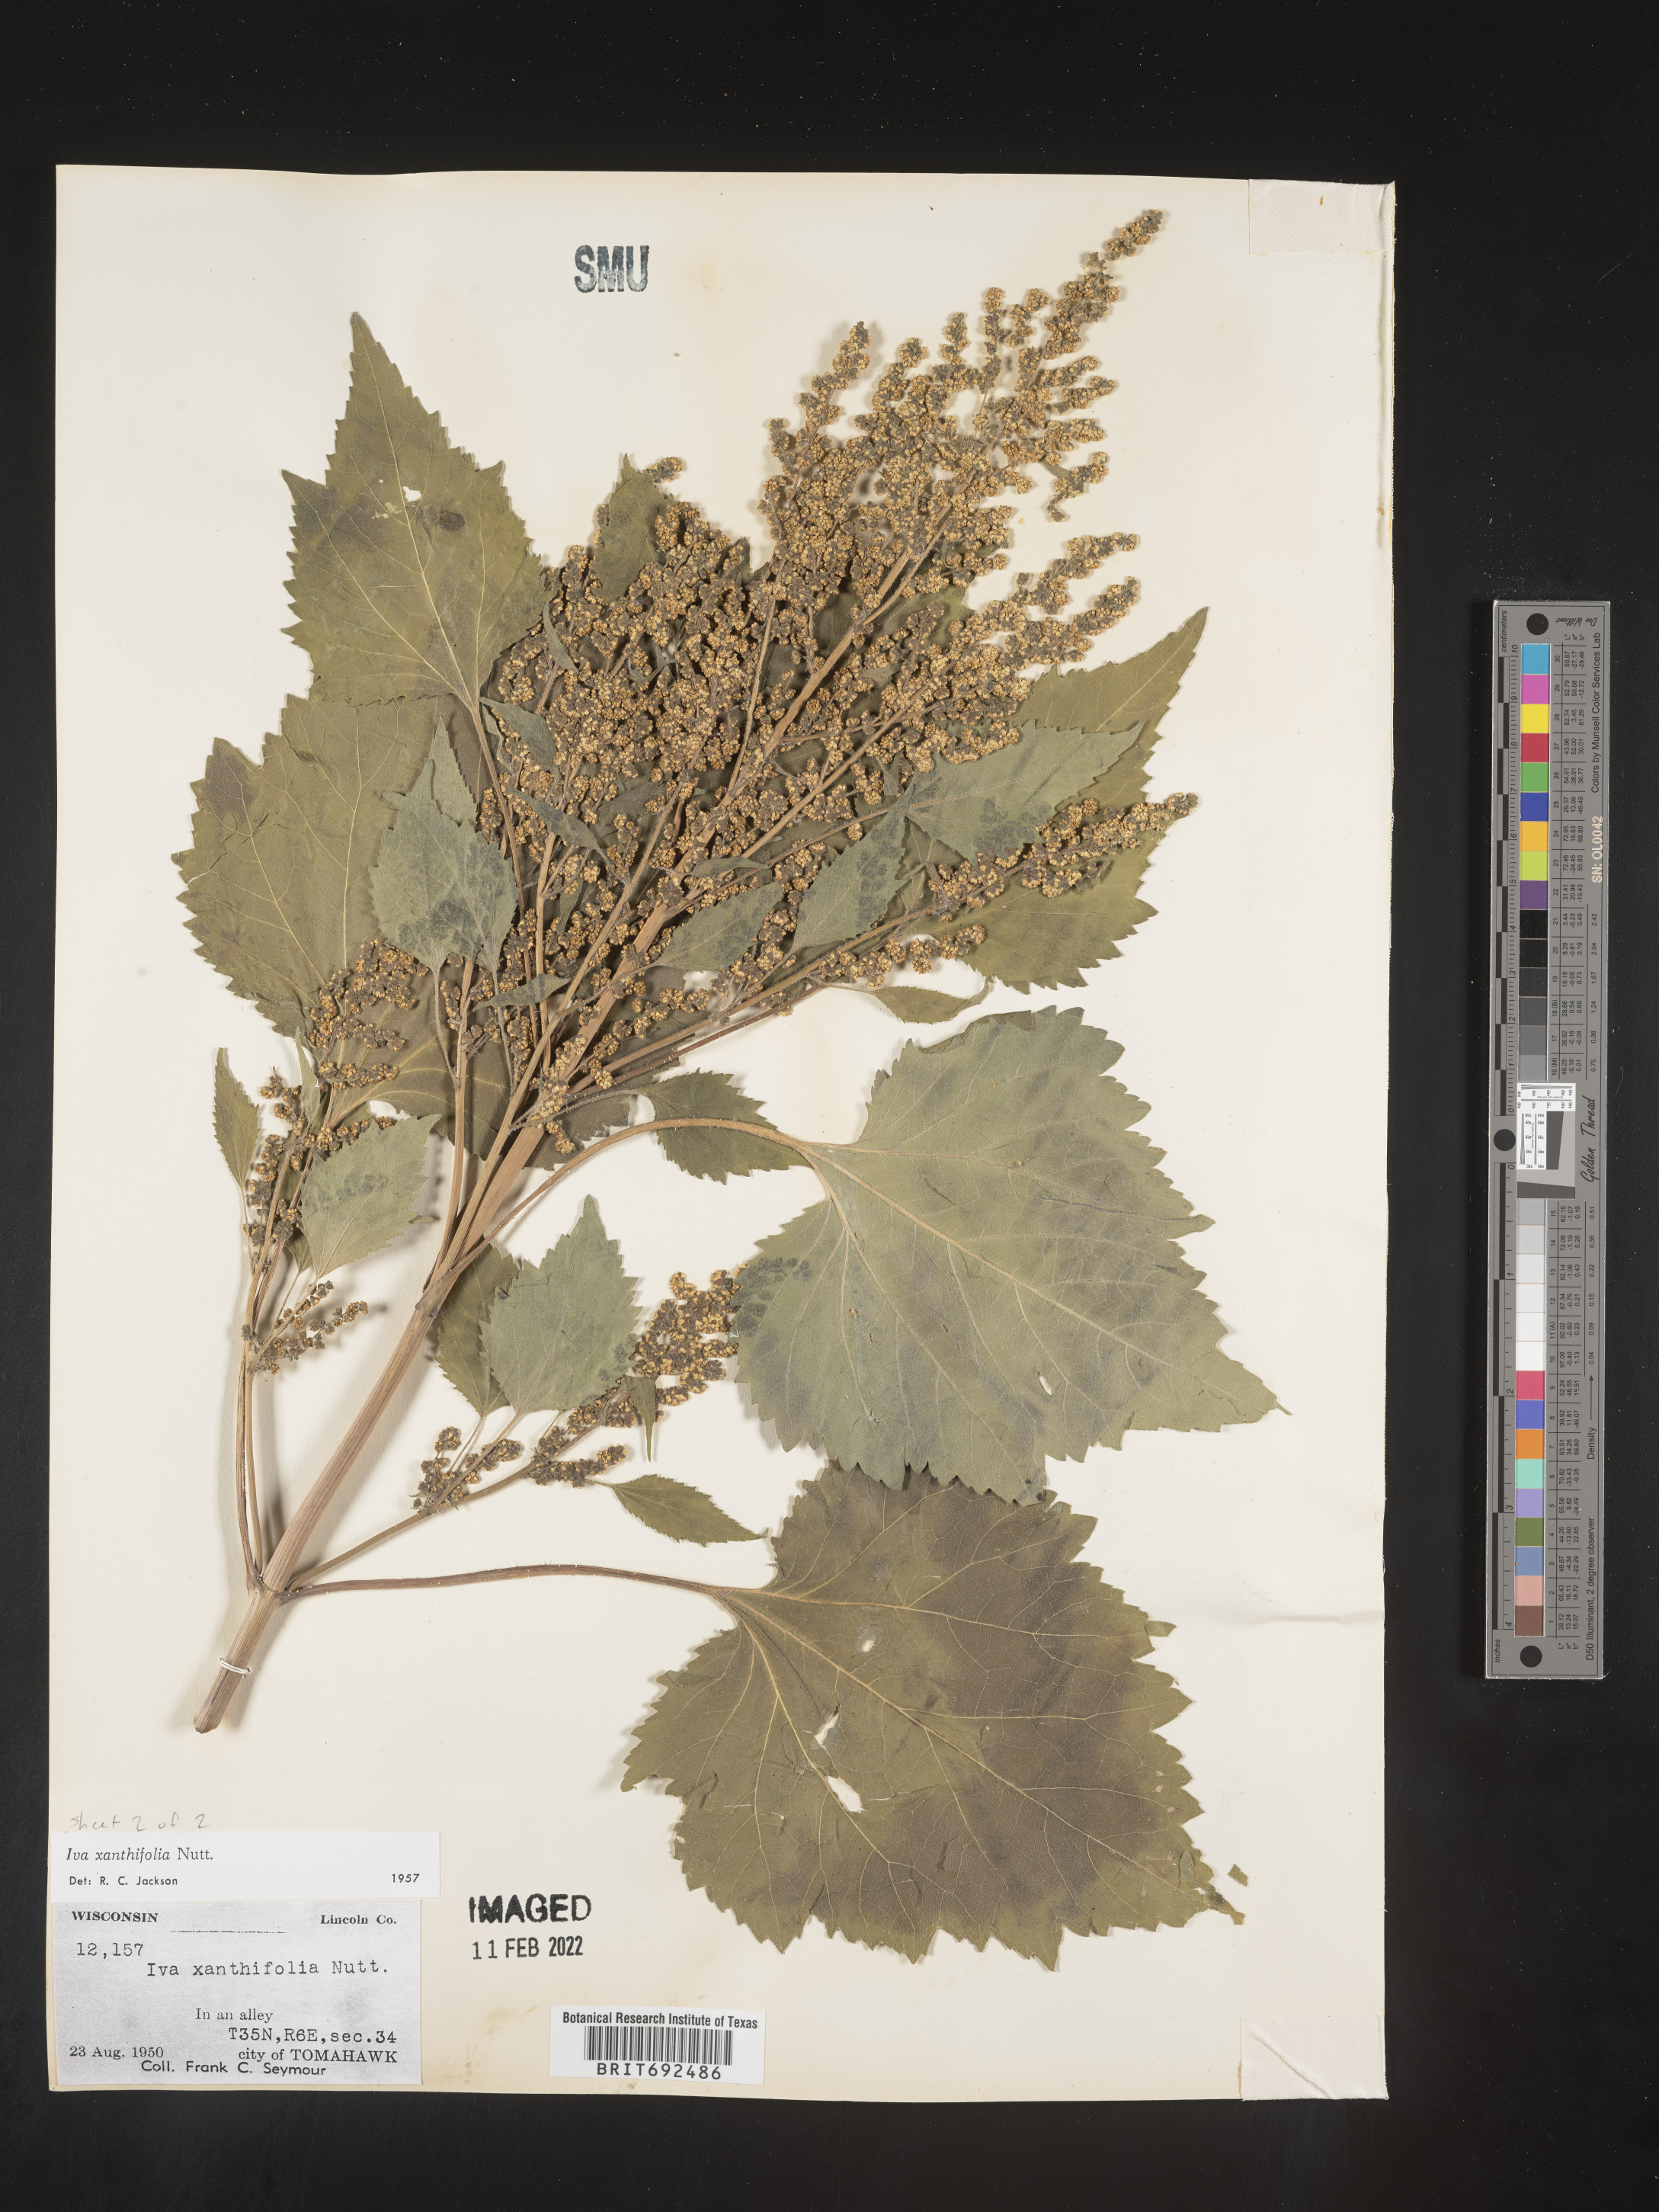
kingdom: Plantae
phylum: Tracheophyta
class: Magnoliopsida
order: Asterales
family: Asteraceae
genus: Cyclachaena
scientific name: Cyclachaena
